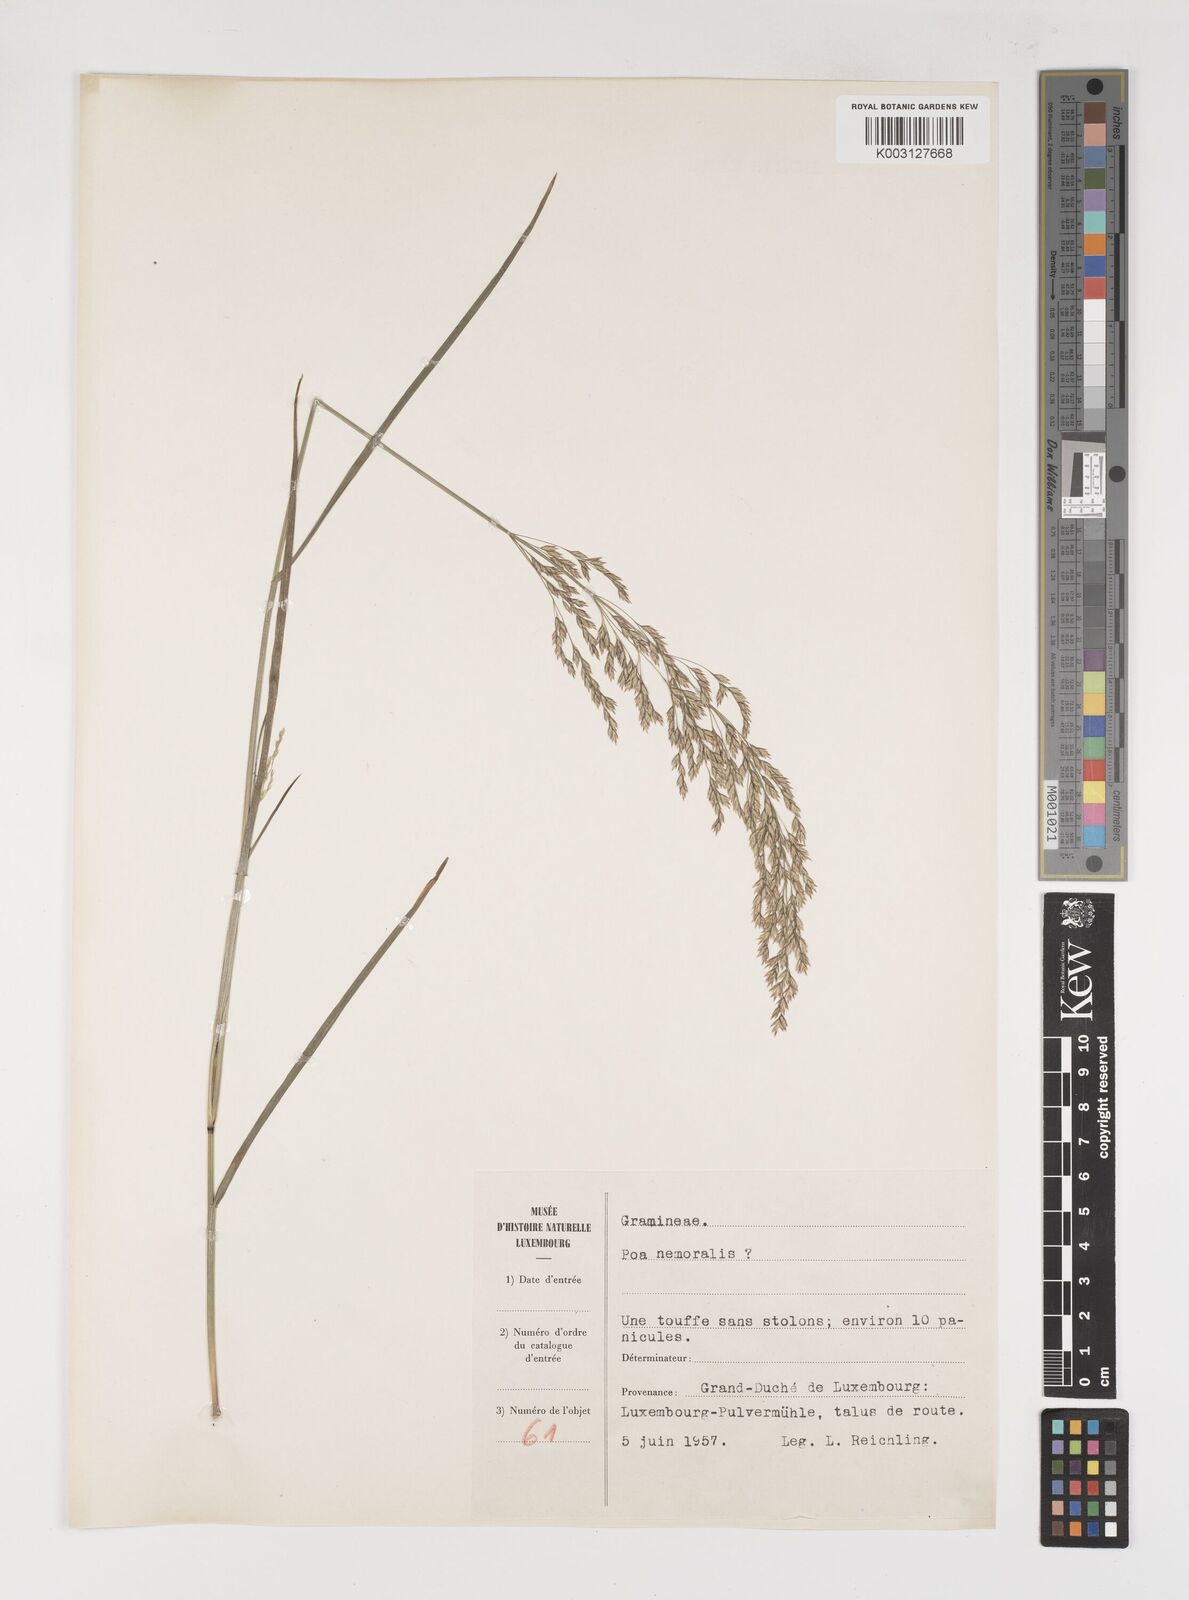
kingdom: Plantae
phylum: Tracheophyta
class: Liliopsida
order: Poales
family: Poaceae
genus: Poa
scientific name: Poa
